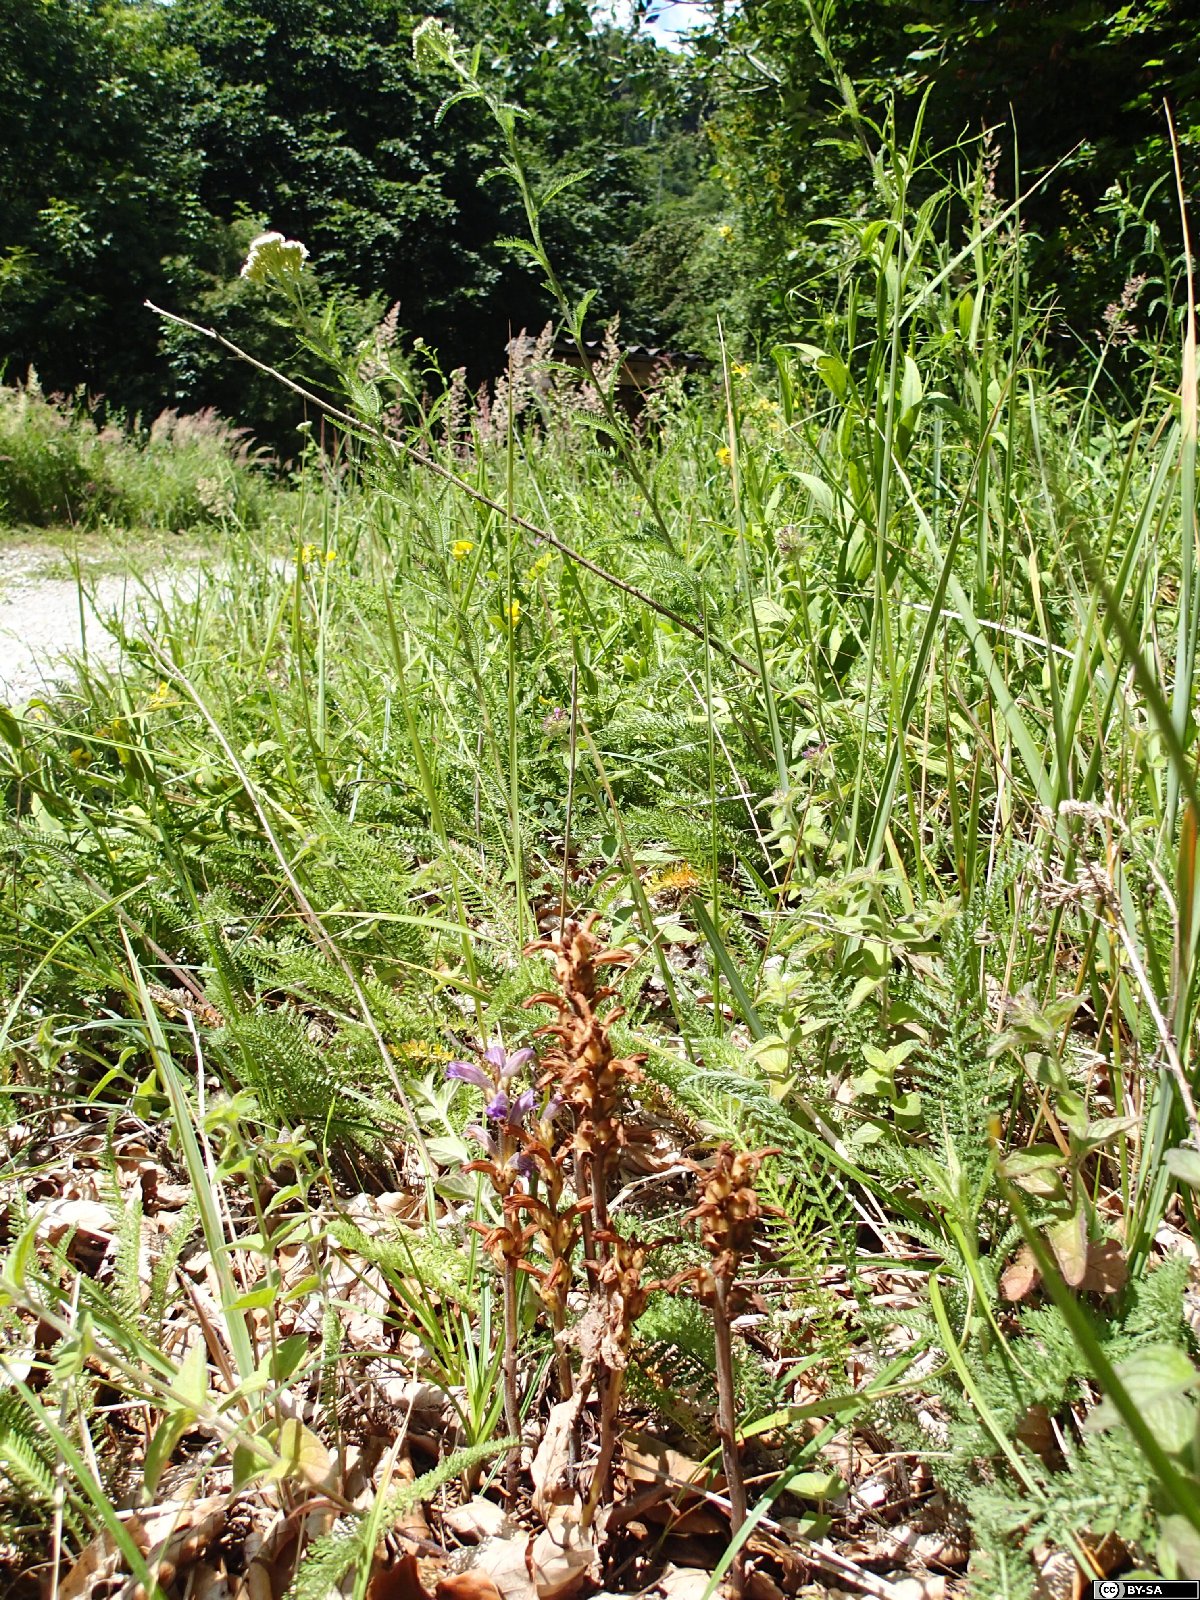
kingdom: Plantae
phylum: Tracheophyta
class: Magnoliopsida
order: Lamiales
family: Orobanchaceae
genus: Phelipanche
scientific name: Phelipanche purpurea
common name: Purple broomrape
